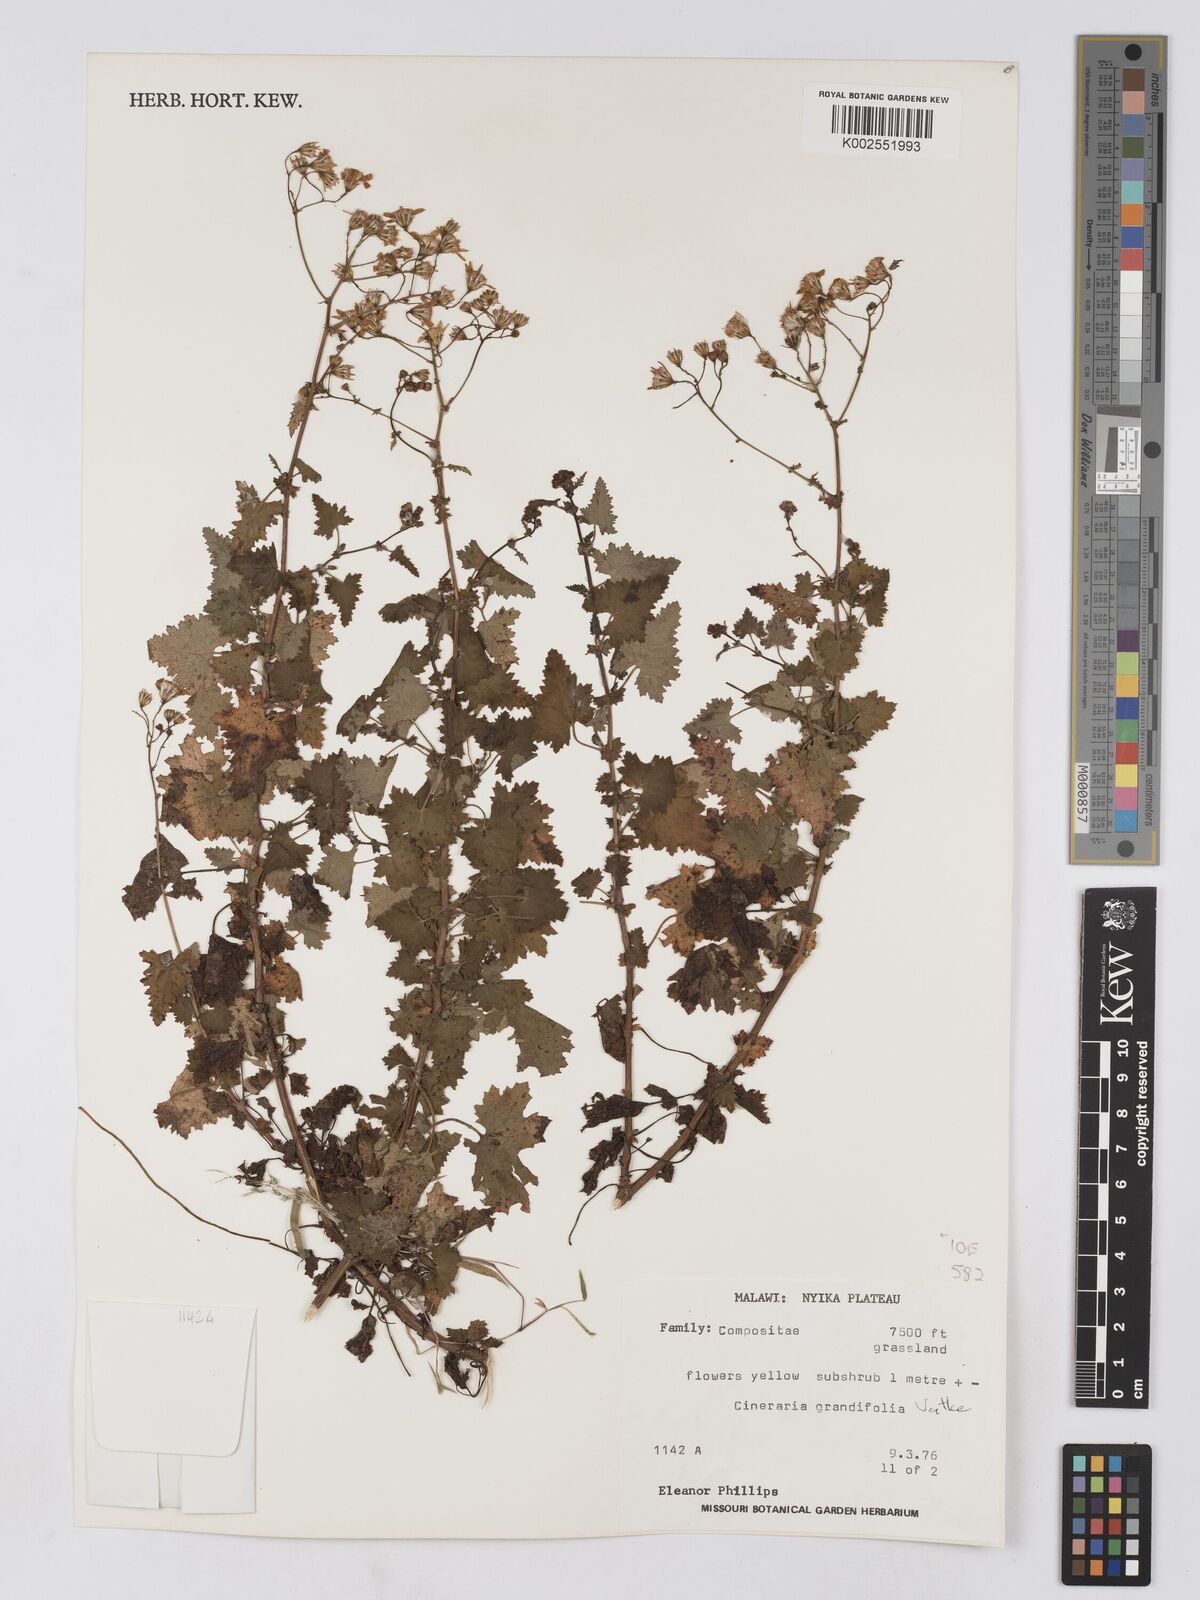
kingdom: Plantae
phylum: Tracheophyta
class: Magnoliopsida
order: Asterales
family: Asteraceae
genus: Cineraria
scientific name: Cineraria deltoidea
